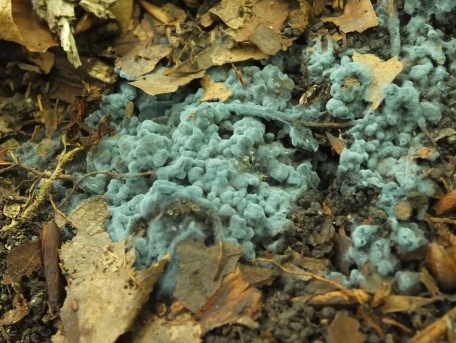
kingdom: Fungi
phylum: Basidiomycota
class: Agaricomycetes
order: Atheliales
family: Atheliaceae
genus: Byssocorticium
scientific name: Byssocorticium atrovirens
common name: blå førnehinde
